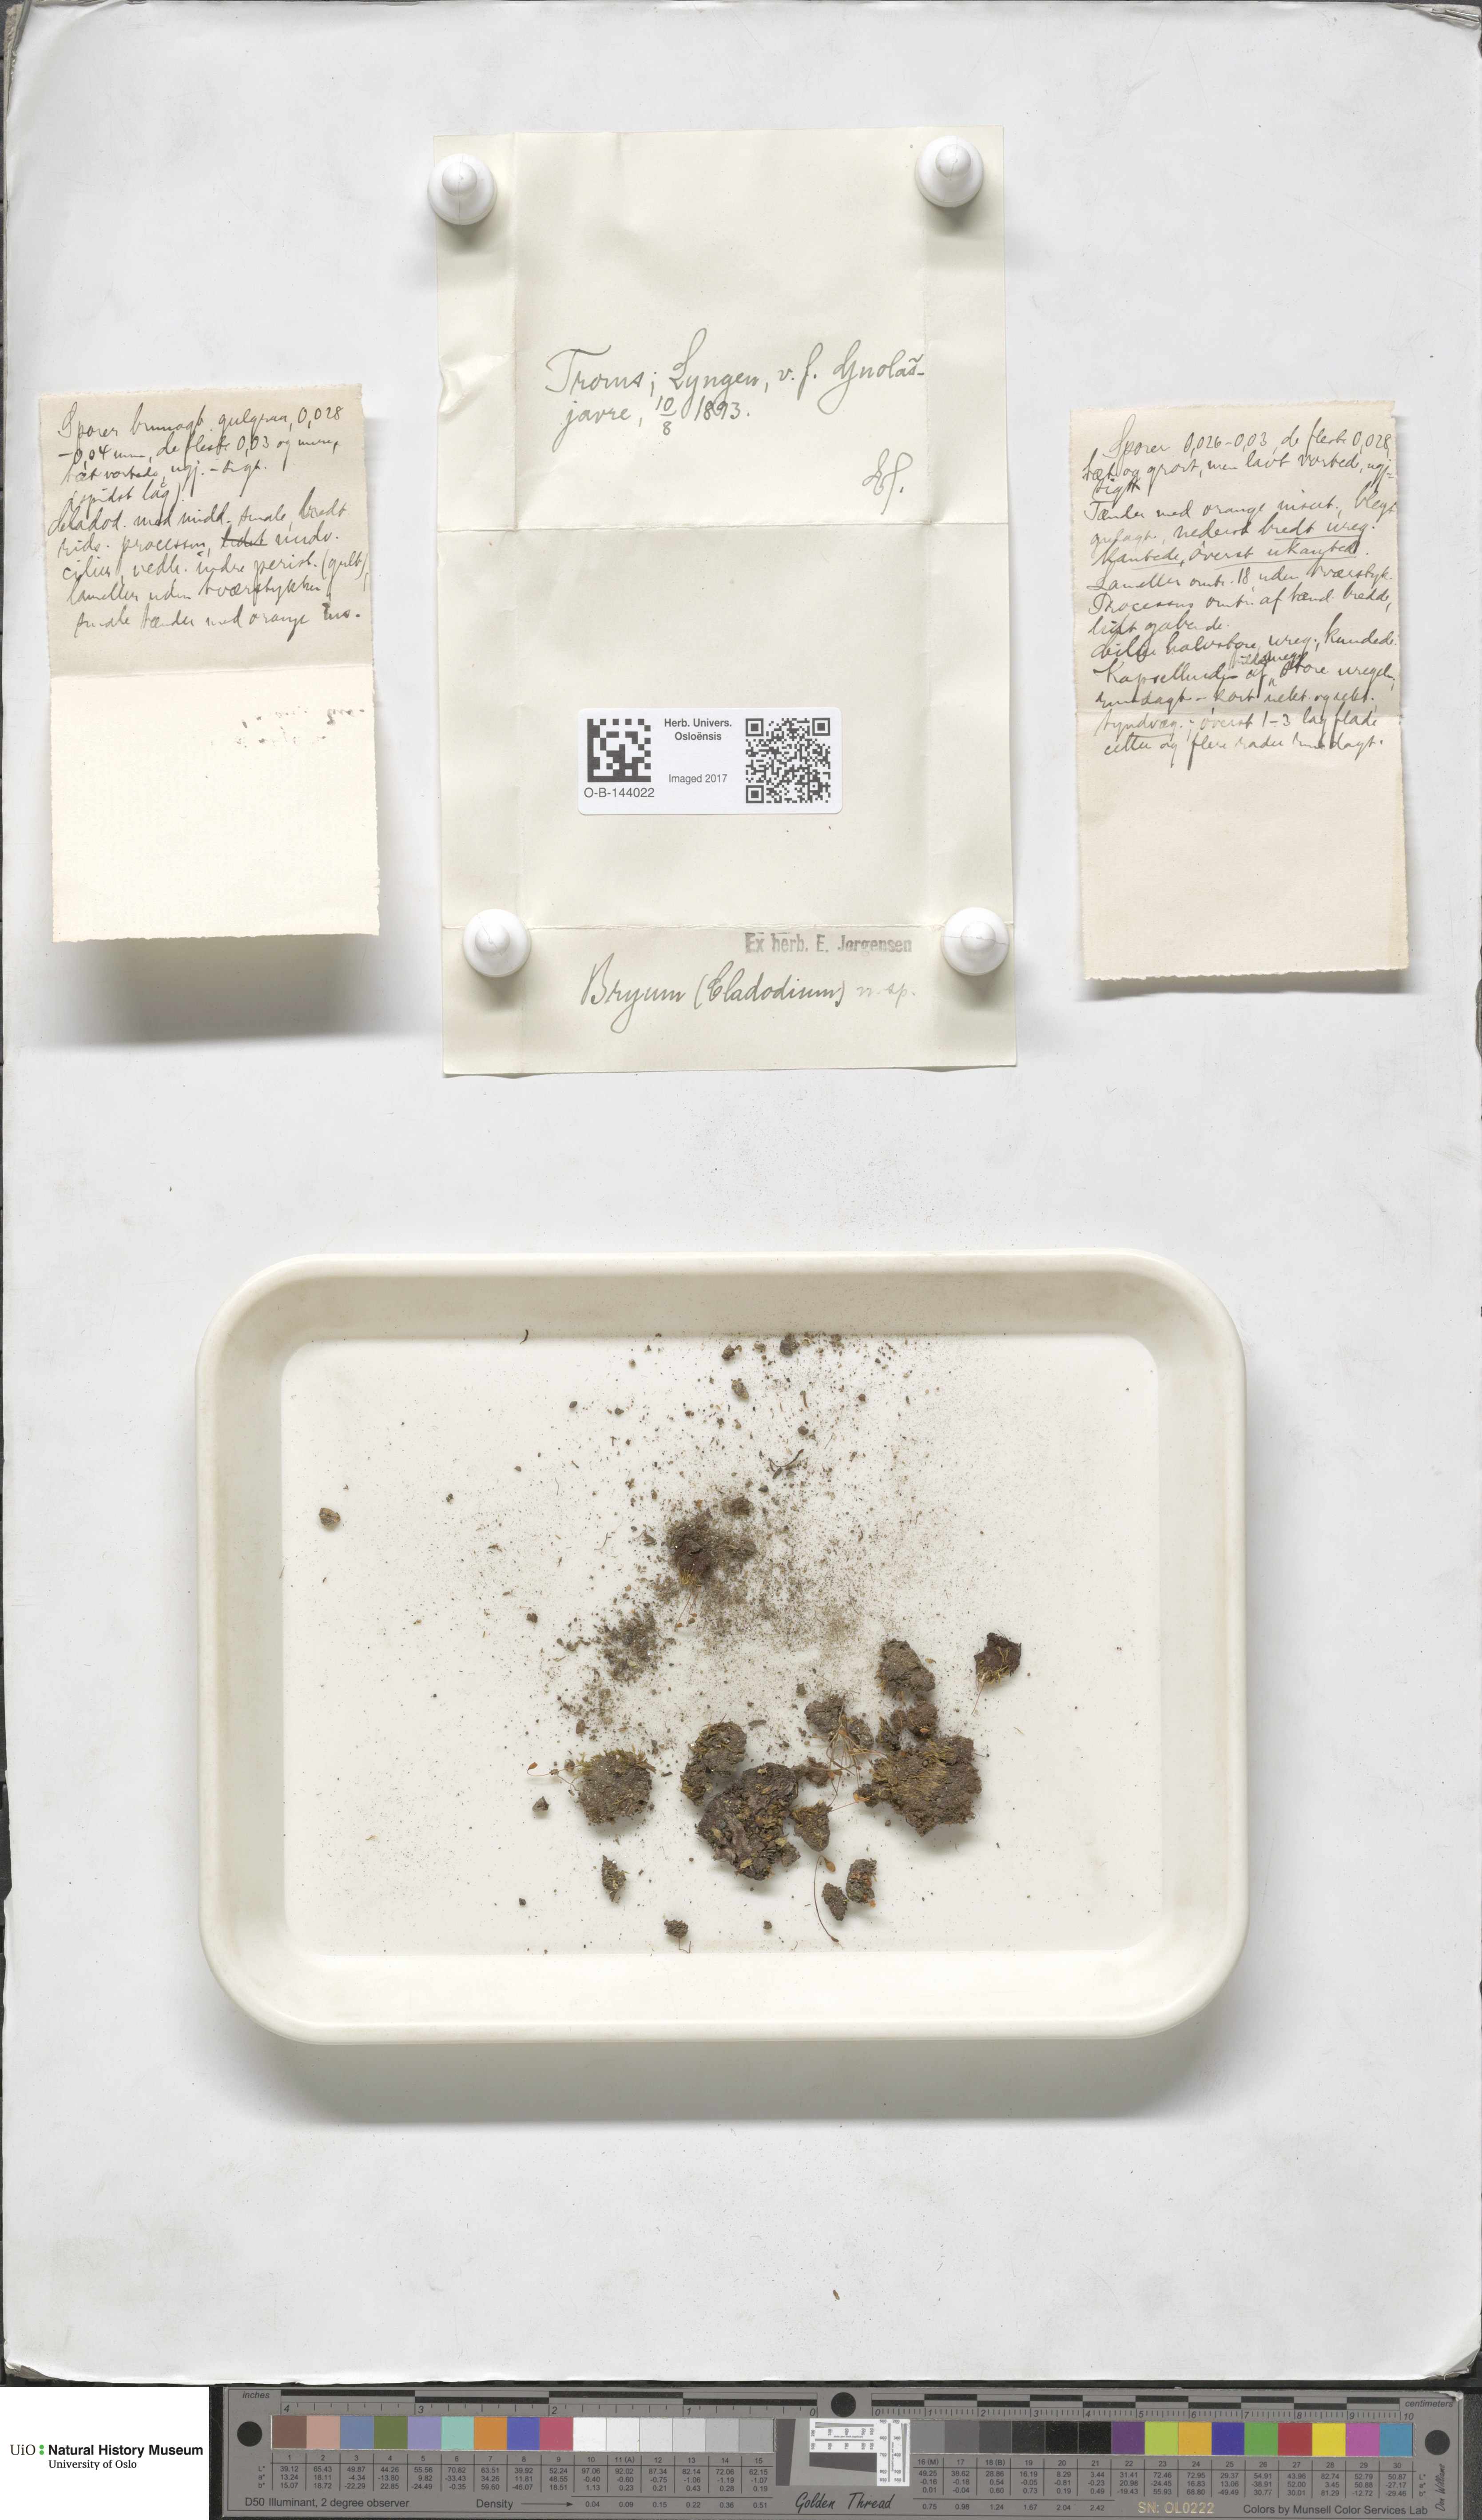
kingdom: Plantae
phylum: Bryophyta
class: Bryopsida
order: Bryales
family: Bryaceae
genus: Bryum
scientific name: Bryum
